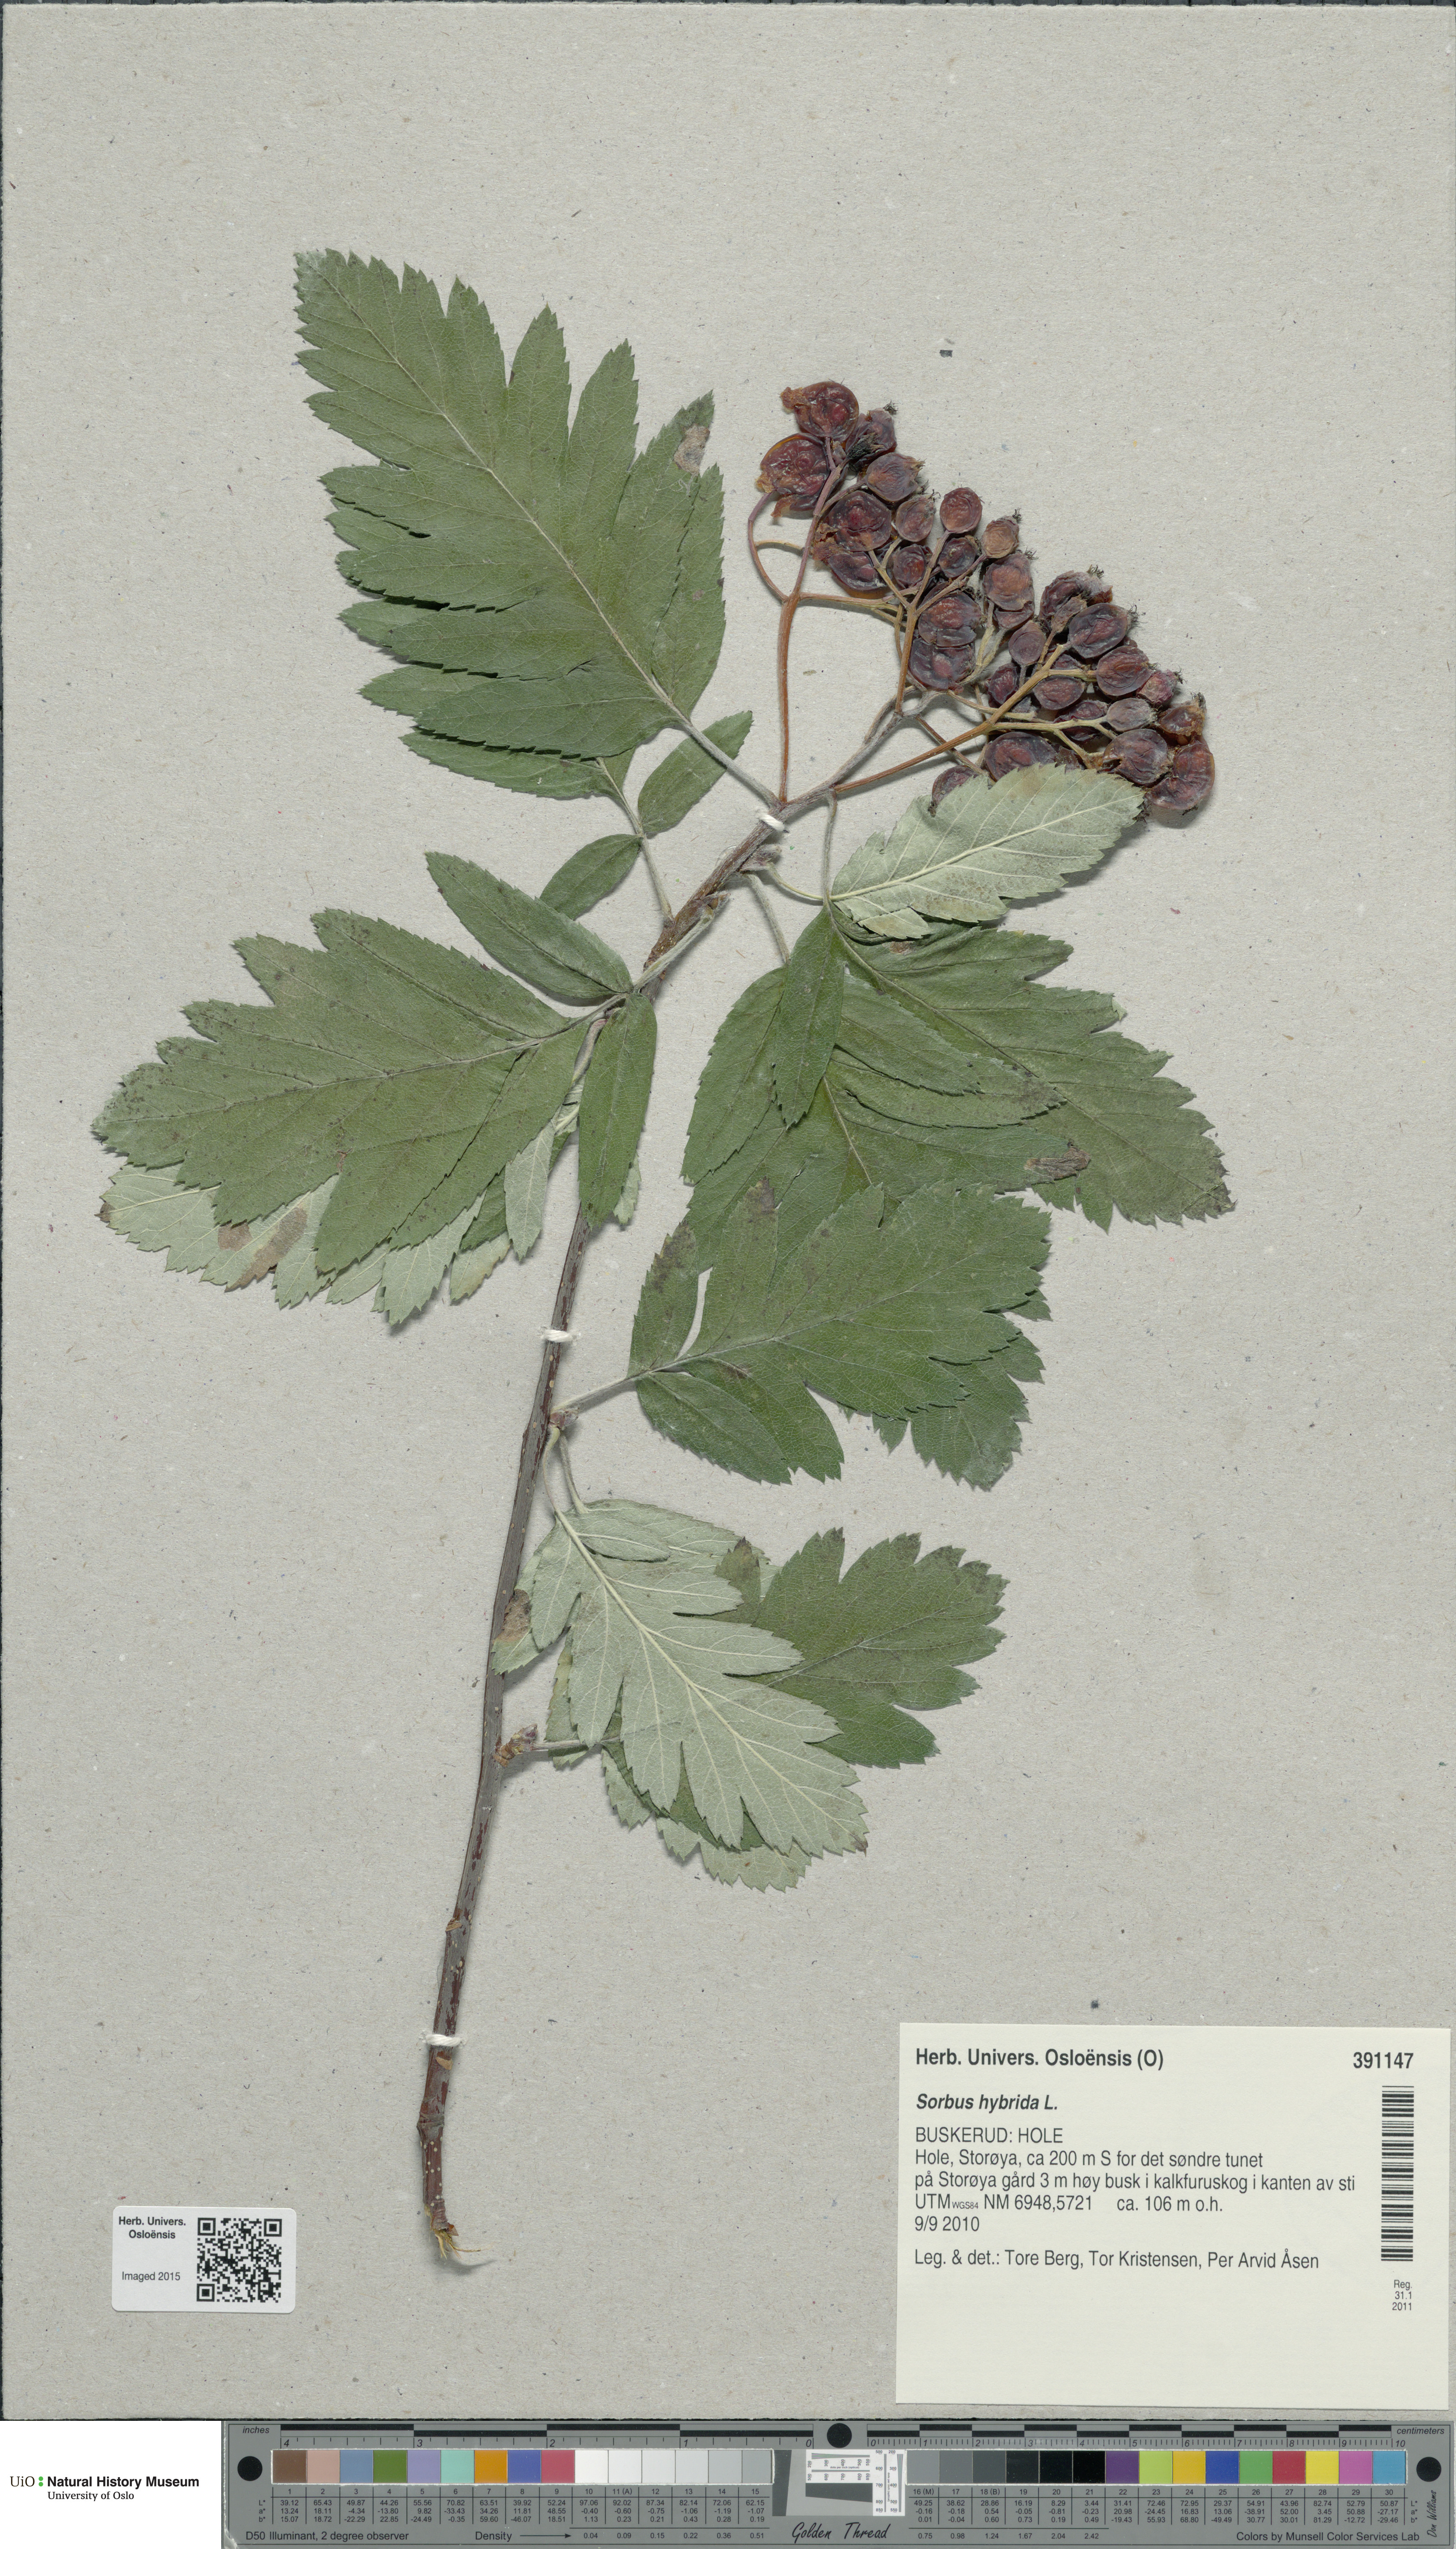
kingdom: Plantae
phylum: Tracheophyta
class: Magnoliopsida
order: Rosales
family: Rosaceae
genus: Hedlundia
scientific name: Hedlundia hybrida
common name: Swedish service-tree
